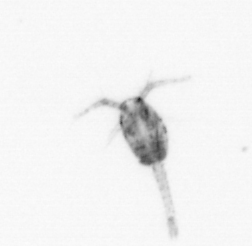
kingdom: Animalia
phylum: Arthropoda
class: Copepoda
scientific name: Copepoda
